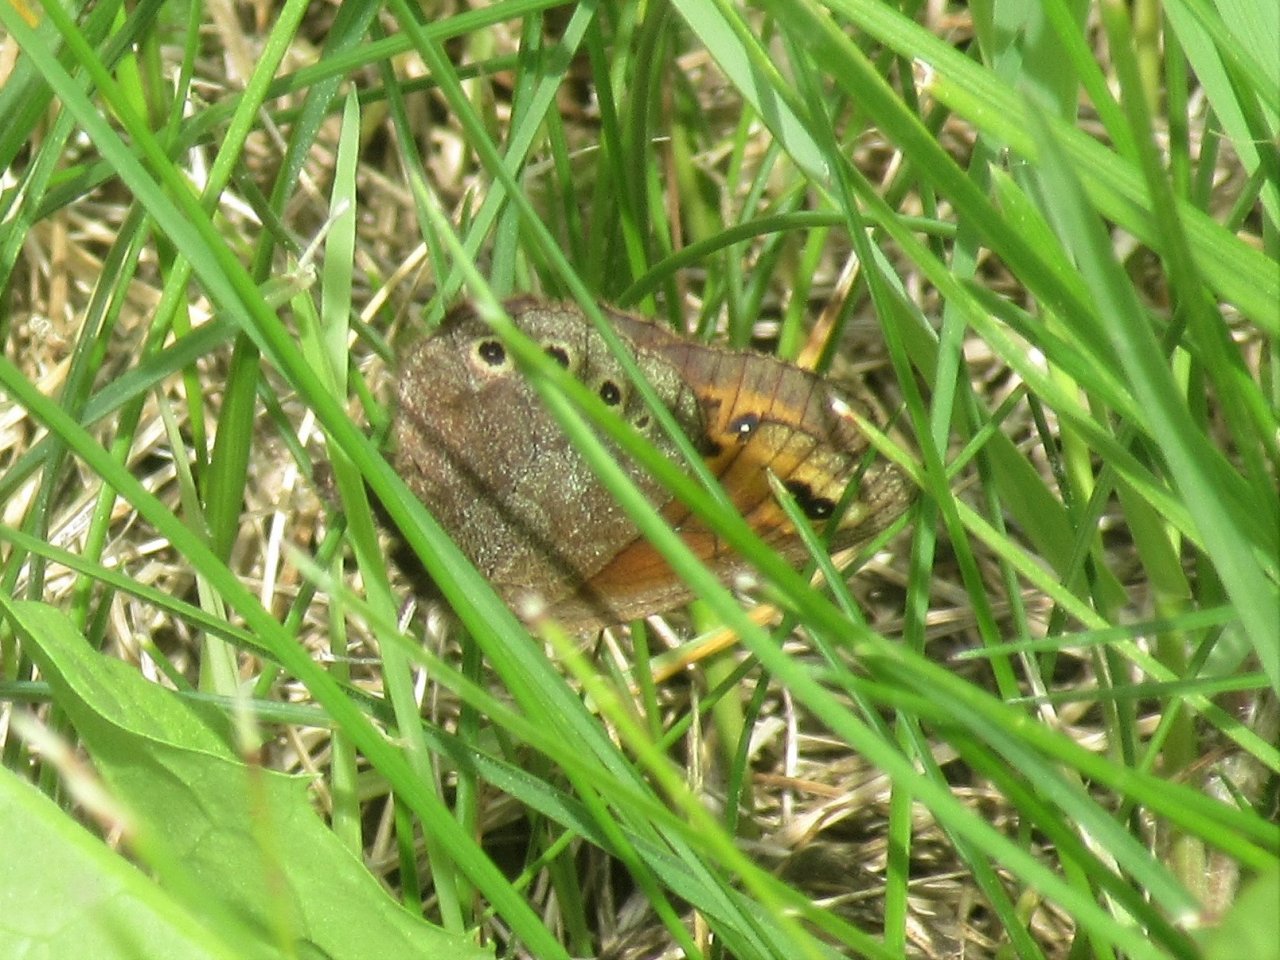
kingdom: Animalia
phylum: Arthropoda
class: Insecta
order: Lepidoptera
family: Nymphalidae
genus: Erebia
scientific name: Erebia epipsodea
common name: Common Alpine
